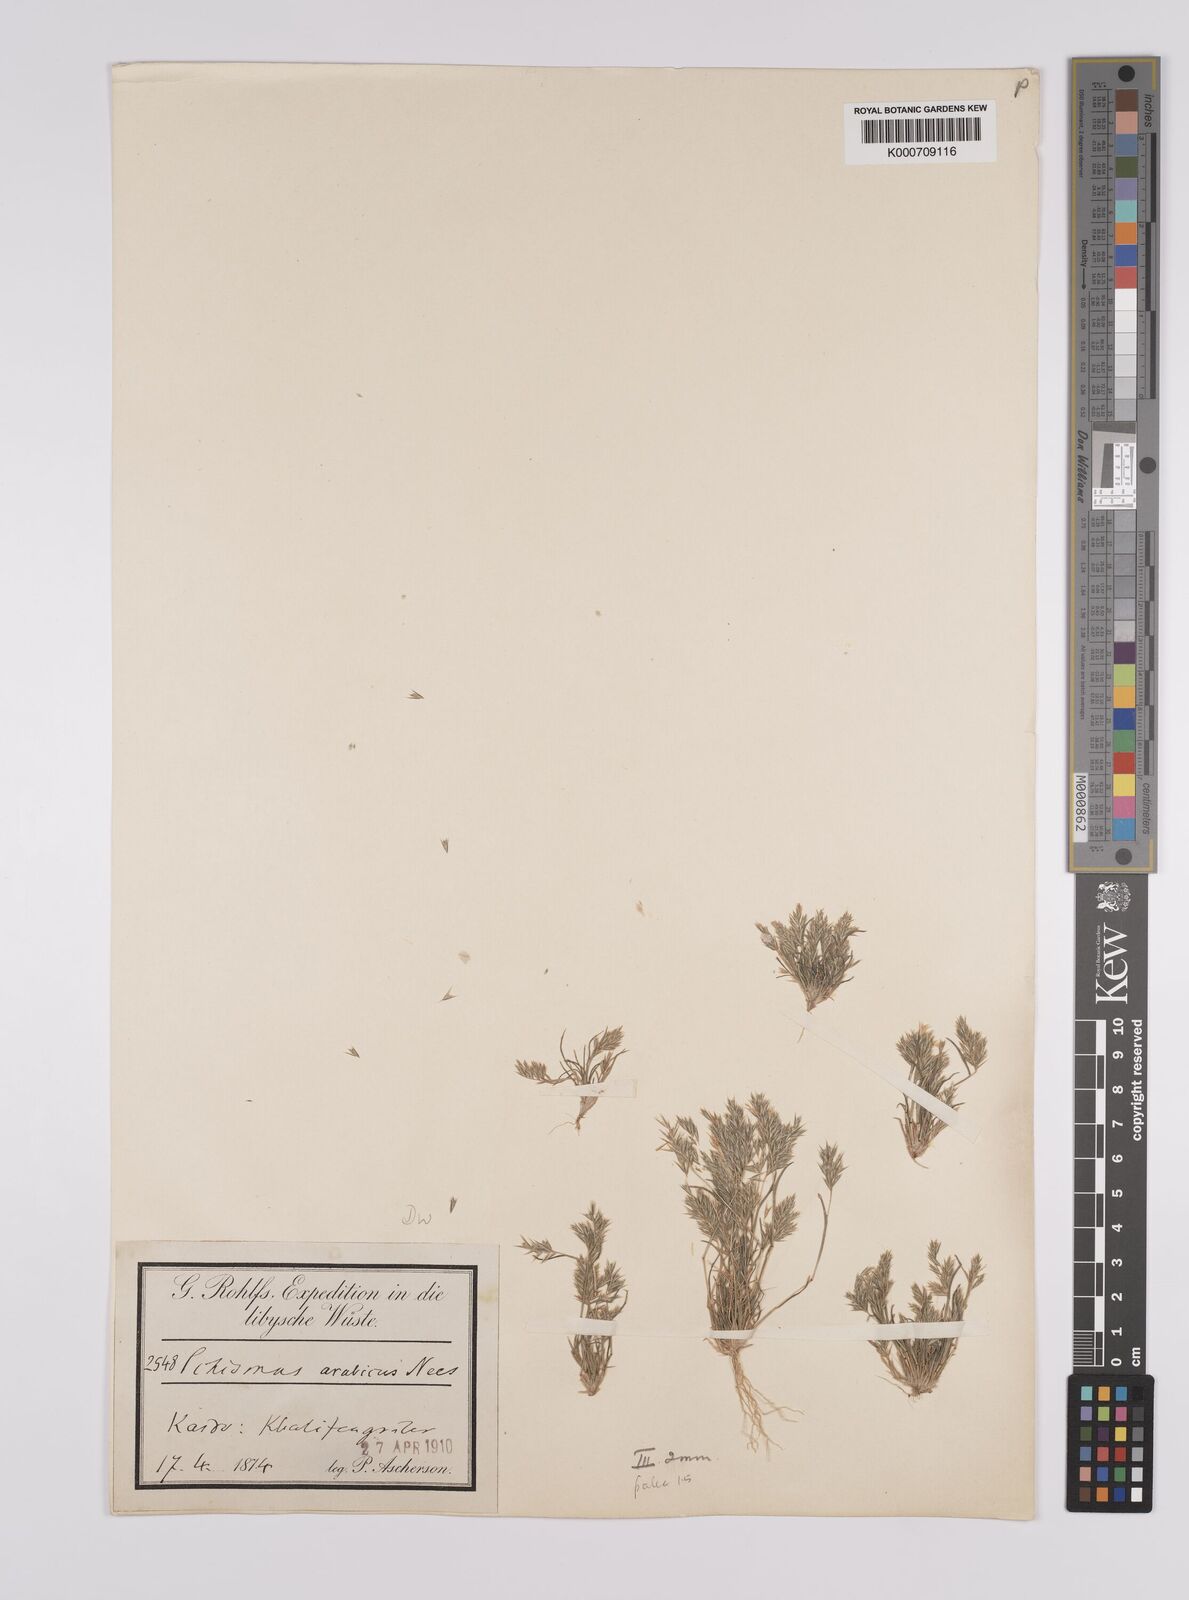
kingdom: Plantae
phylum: Tracheophyta
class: Liliopsida
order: Poales
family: Poaceae
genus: Schismus
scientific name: Schismus arabicus
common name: Arabian schismus
